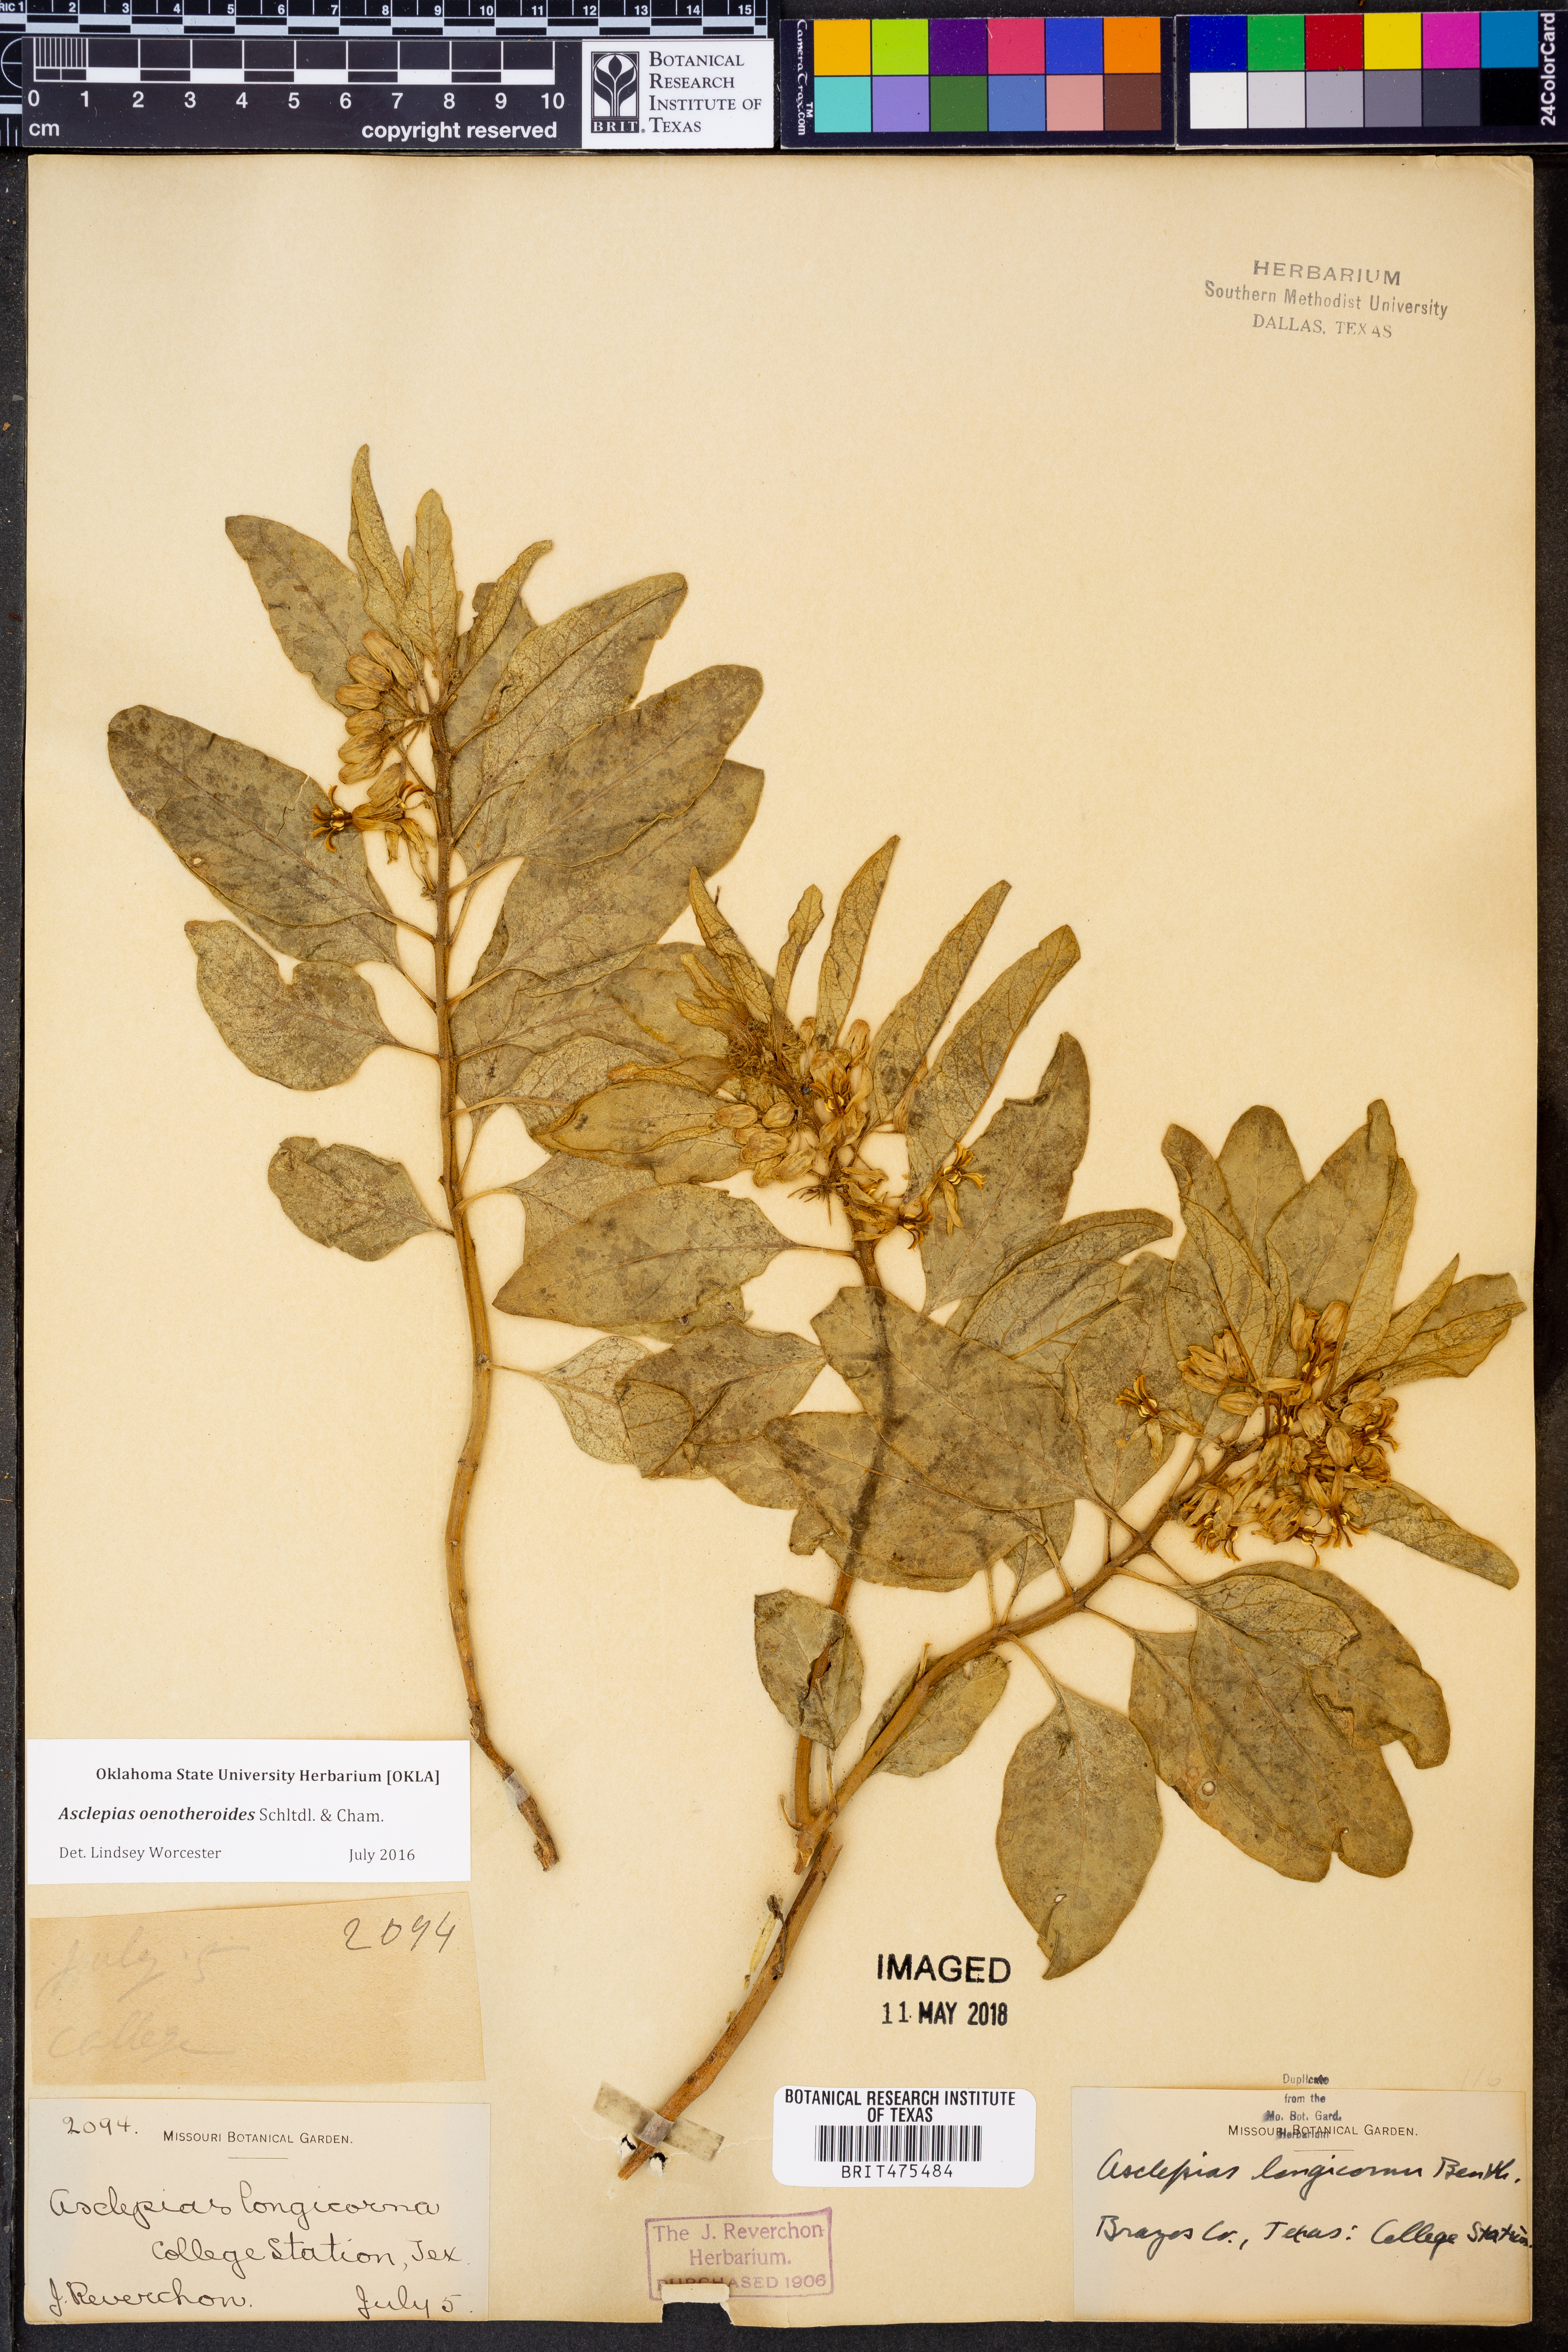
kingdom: Plantae
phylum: Tracheophyta
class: Magnoliopsida
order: Gentianales
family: Apocynaceae
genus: Asclepias
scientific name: Asclepias oenotheroides
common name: Zizotes milkweed
